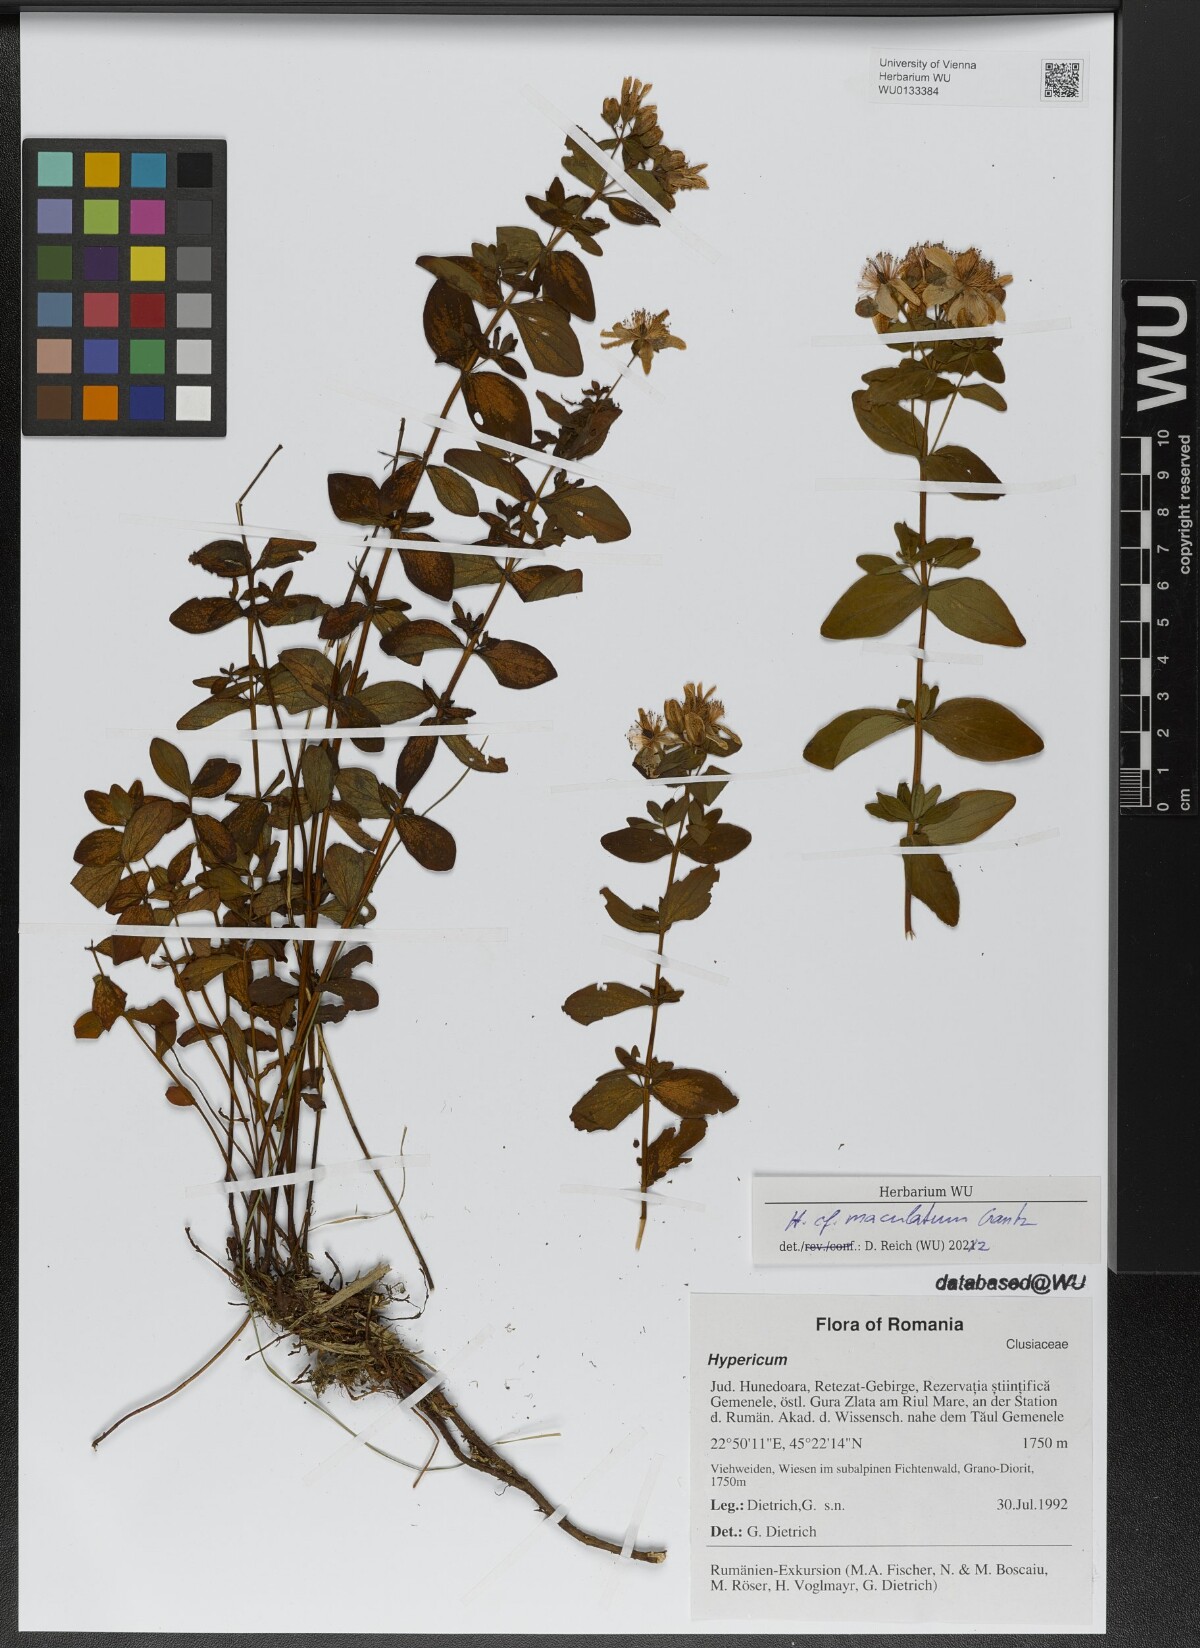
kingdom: Plantae
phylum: Tracheophyta
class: Magnoliopsida
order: Malpighiales
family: Hypericaceae
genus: Hypericum
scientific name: Hypericum maculatum
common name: Imperforate st. john's-wort
